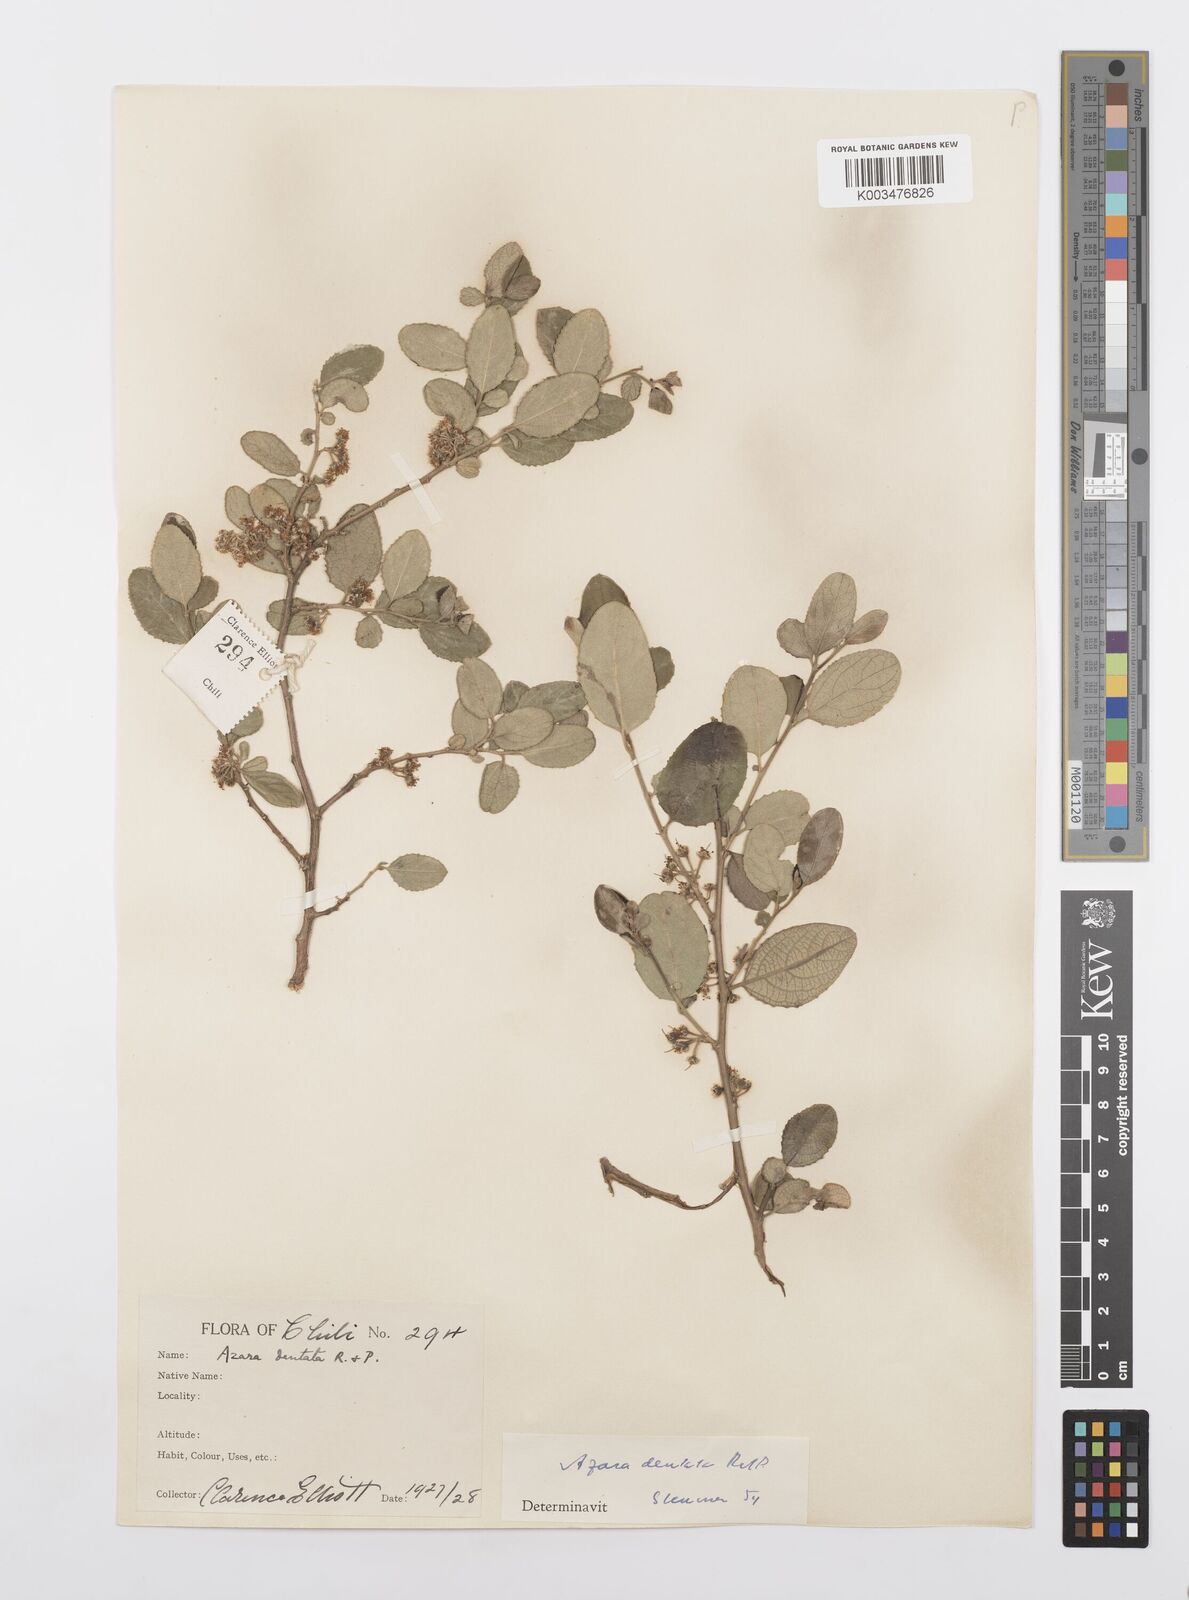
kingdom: Plantae
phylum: Tracheophyta
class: Magnoliopsida
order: Malpighiales
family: Salicaceae
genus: Azara
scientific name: Azara dentata
